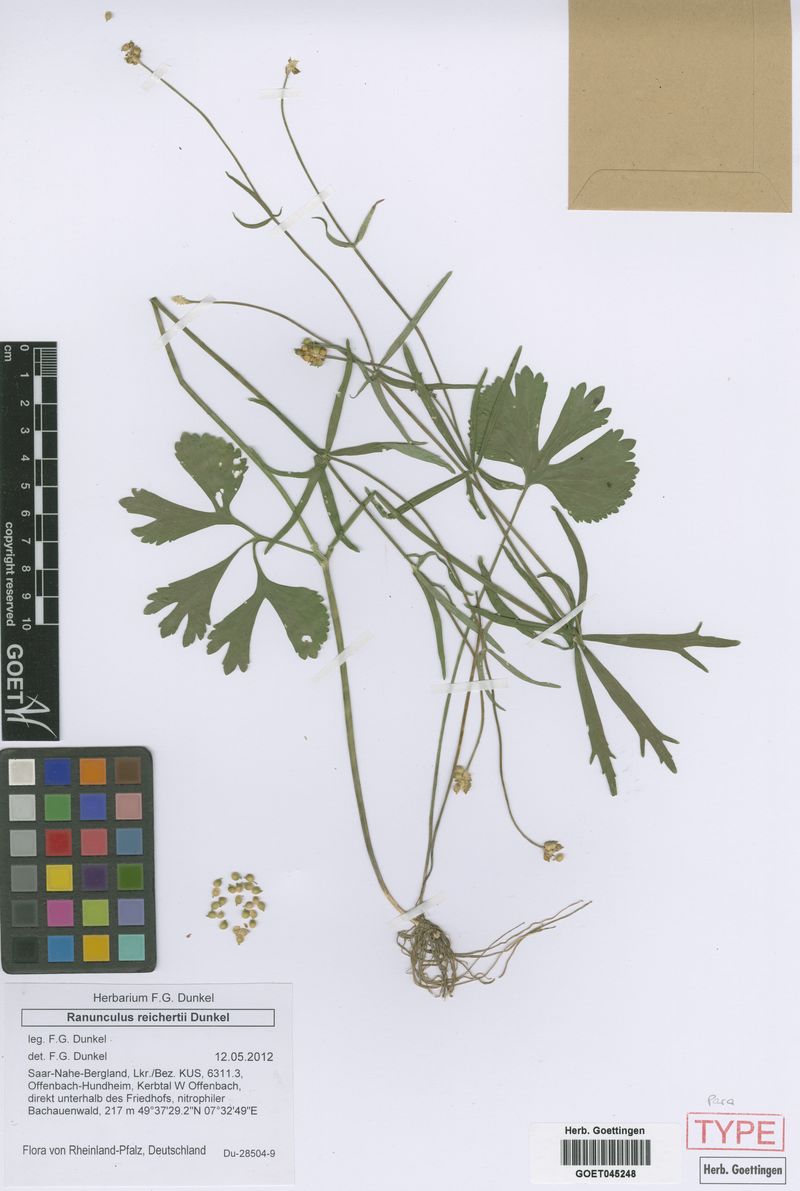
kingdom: Plantae
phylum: Tracheophyta
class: Magnoliopsida
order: Ranunculales
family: Ranunculaceae
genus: Ranunculus
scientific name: Ranunculus reichertii
